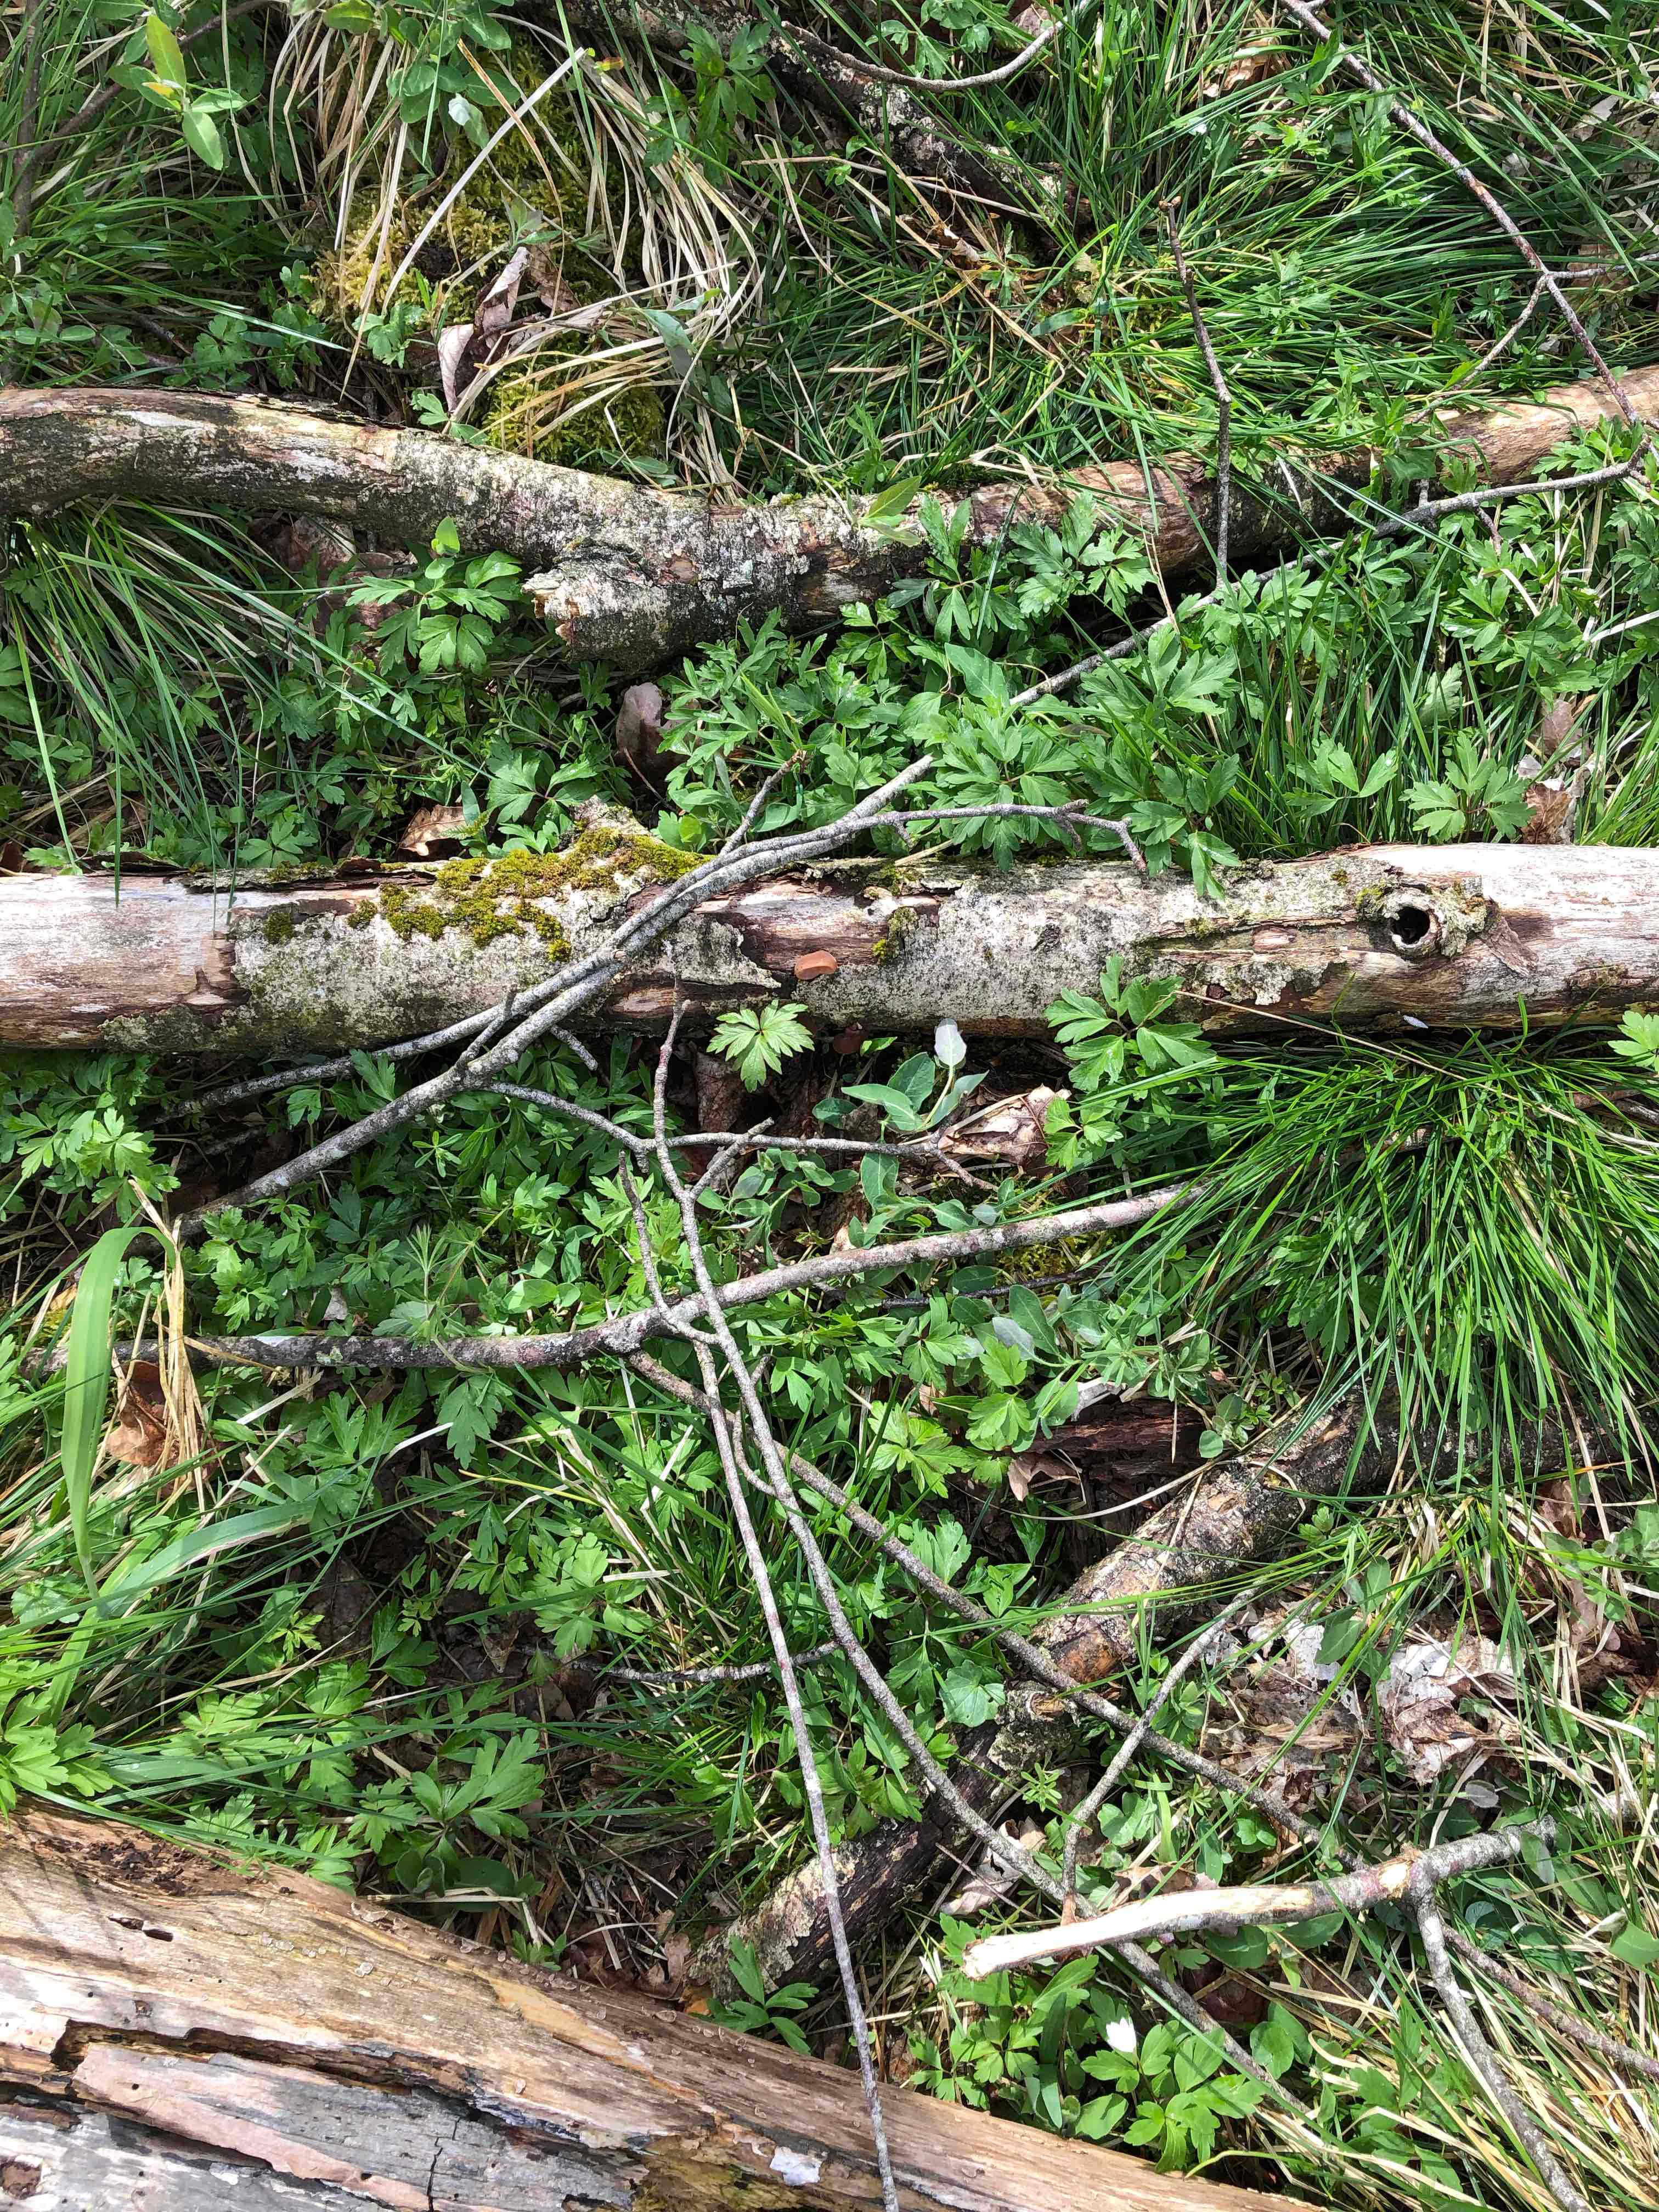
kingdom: Fungi
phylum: Basidiomycota
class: Agaricomycetes
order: Auriculariales
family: Auriculariaceae
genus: Auricularia
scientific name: Auricularia auricula-judae
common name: almindelig judasøre
